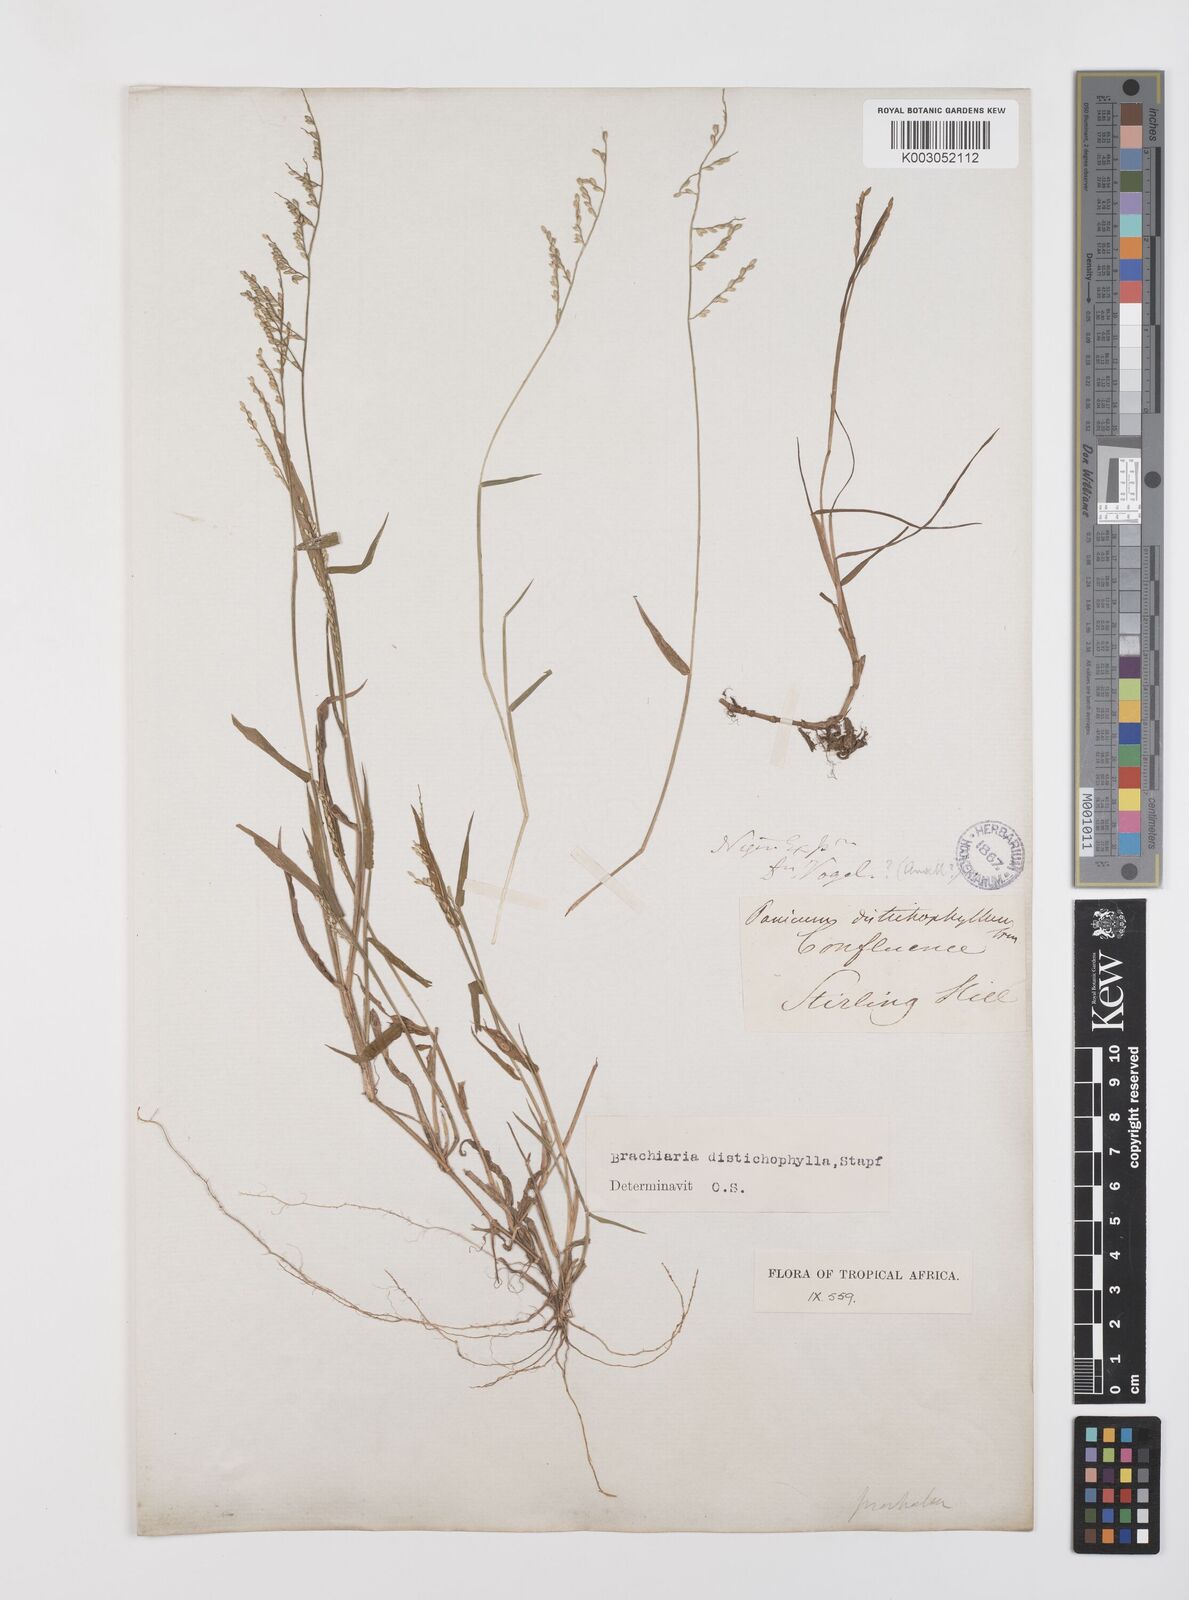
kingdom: Plantae
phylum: Tracheophyta
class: Liliopsida
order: Poales
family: Poaceae
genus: Urochloa
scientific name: Urochloa villosa
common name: Hairy signalgrass
